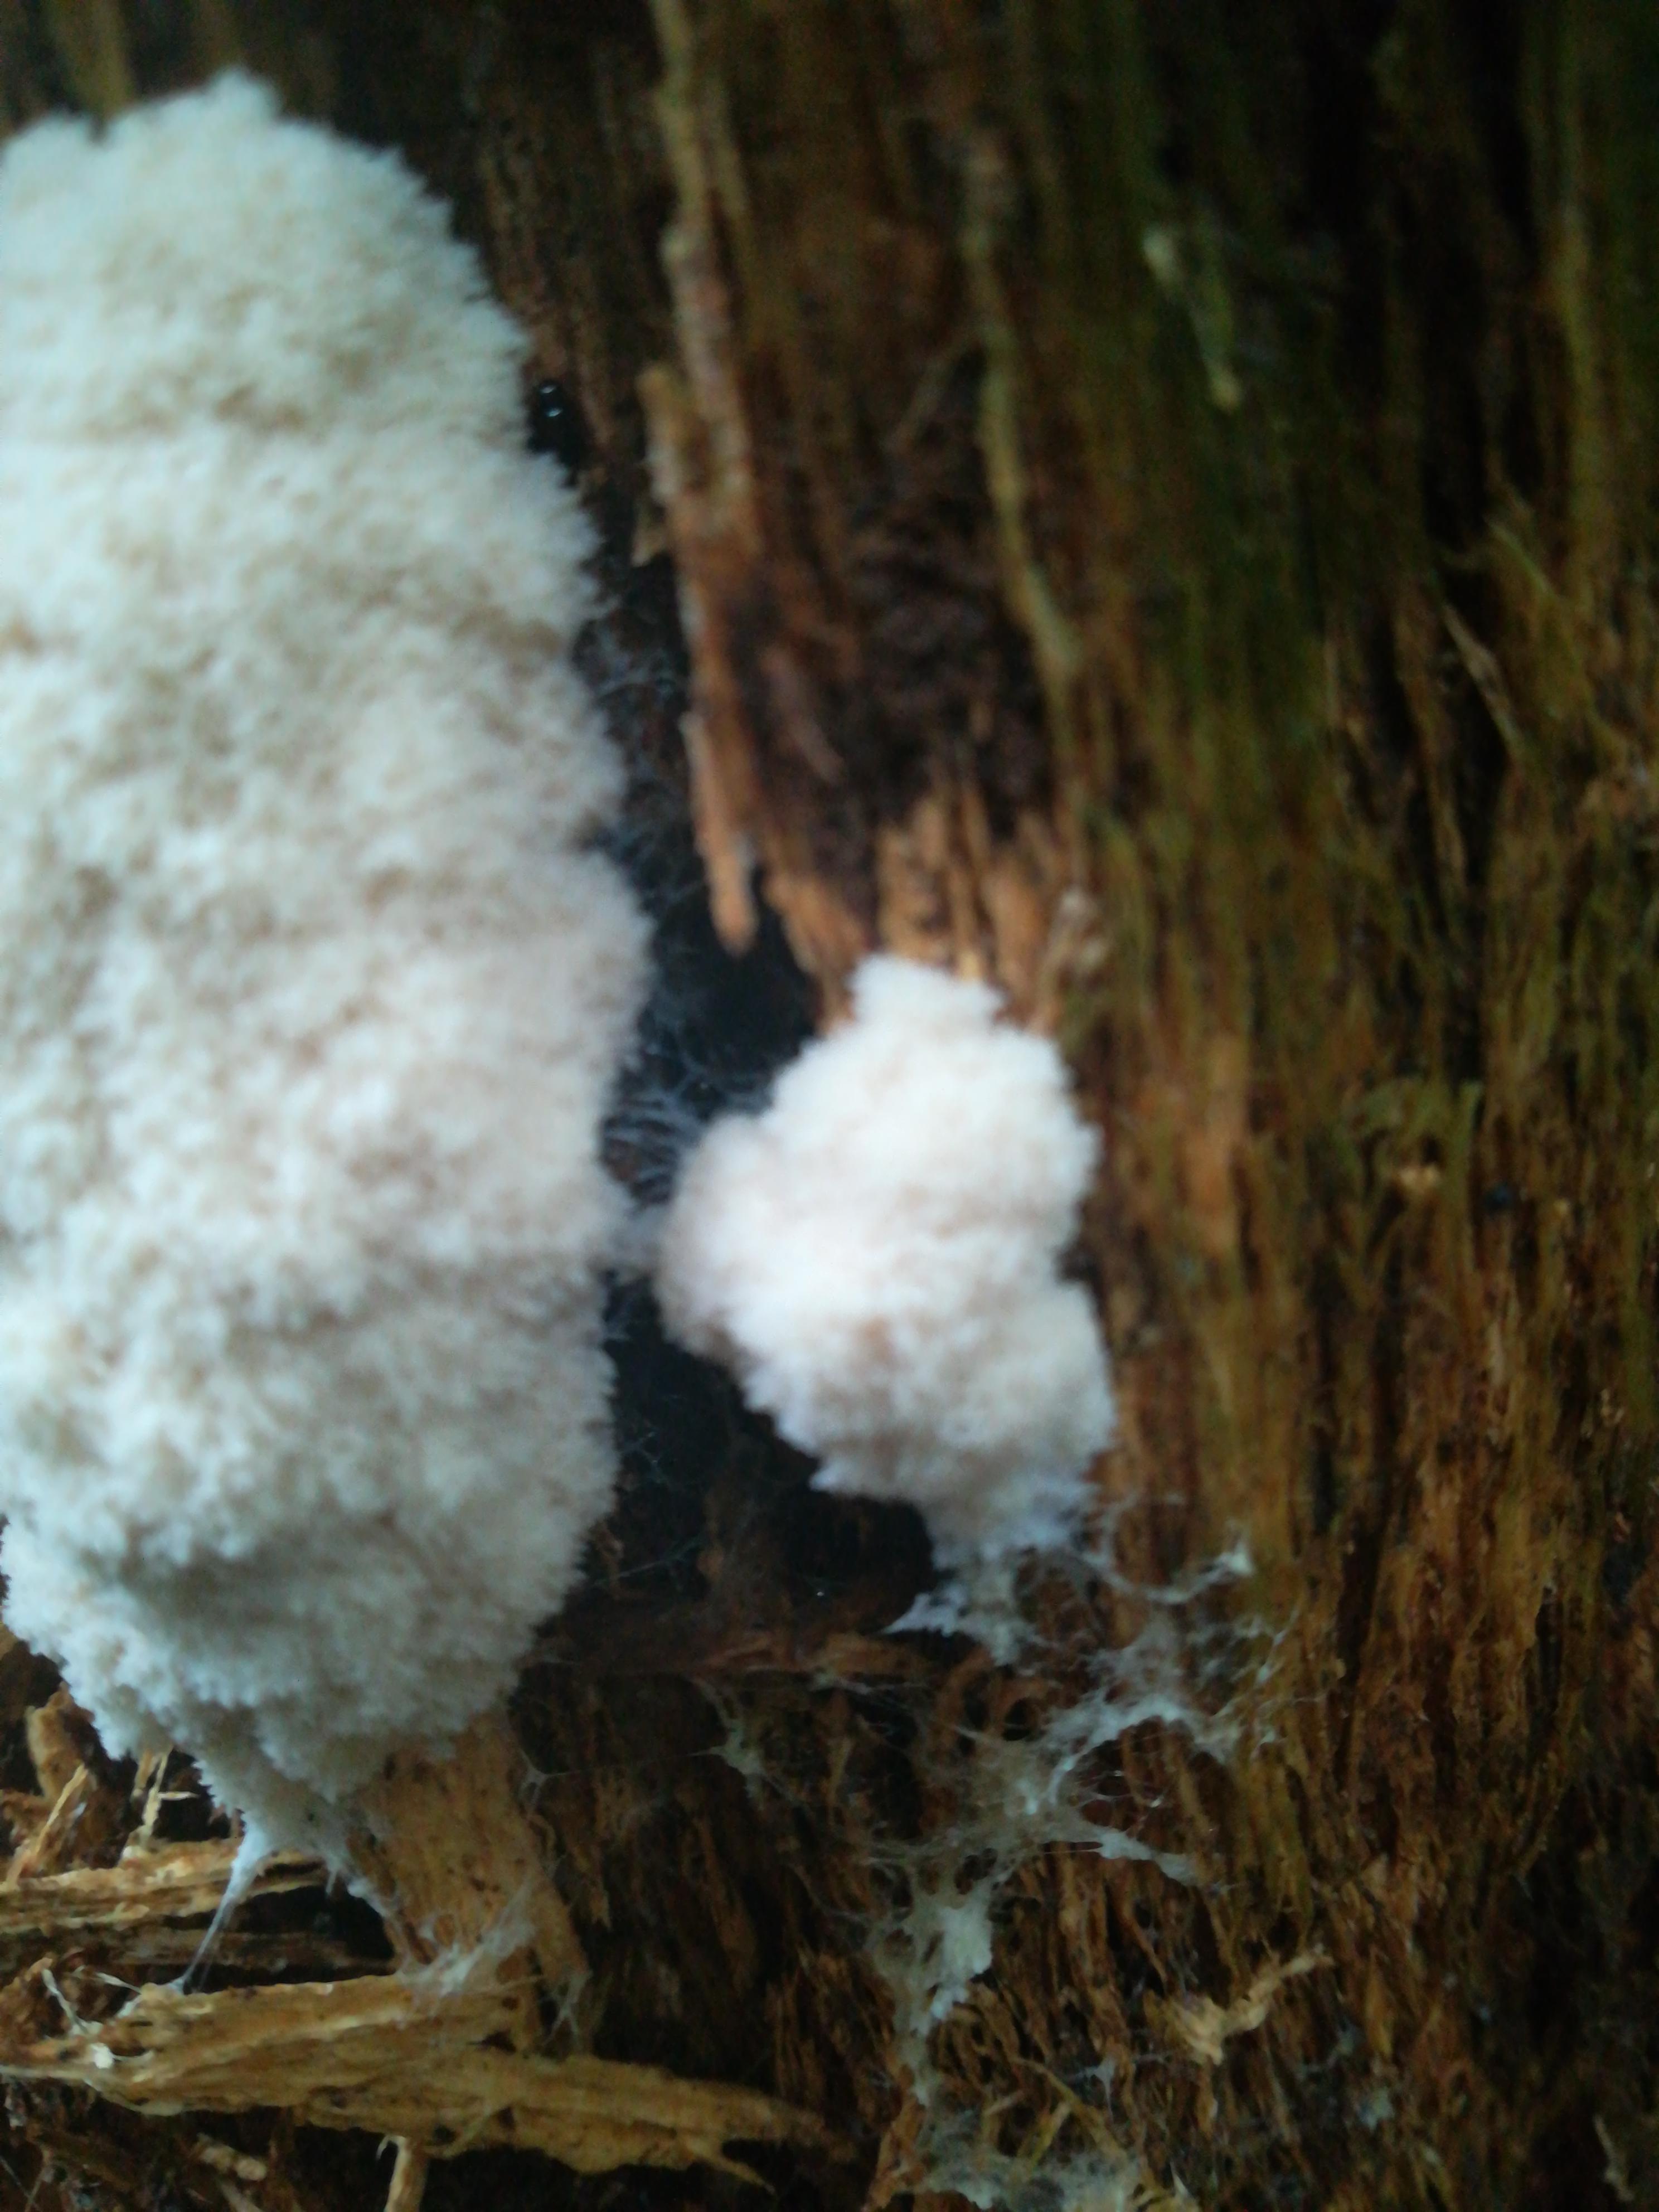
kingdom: Protozoa
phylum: Mycetozoa
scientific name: Mycetozoa
